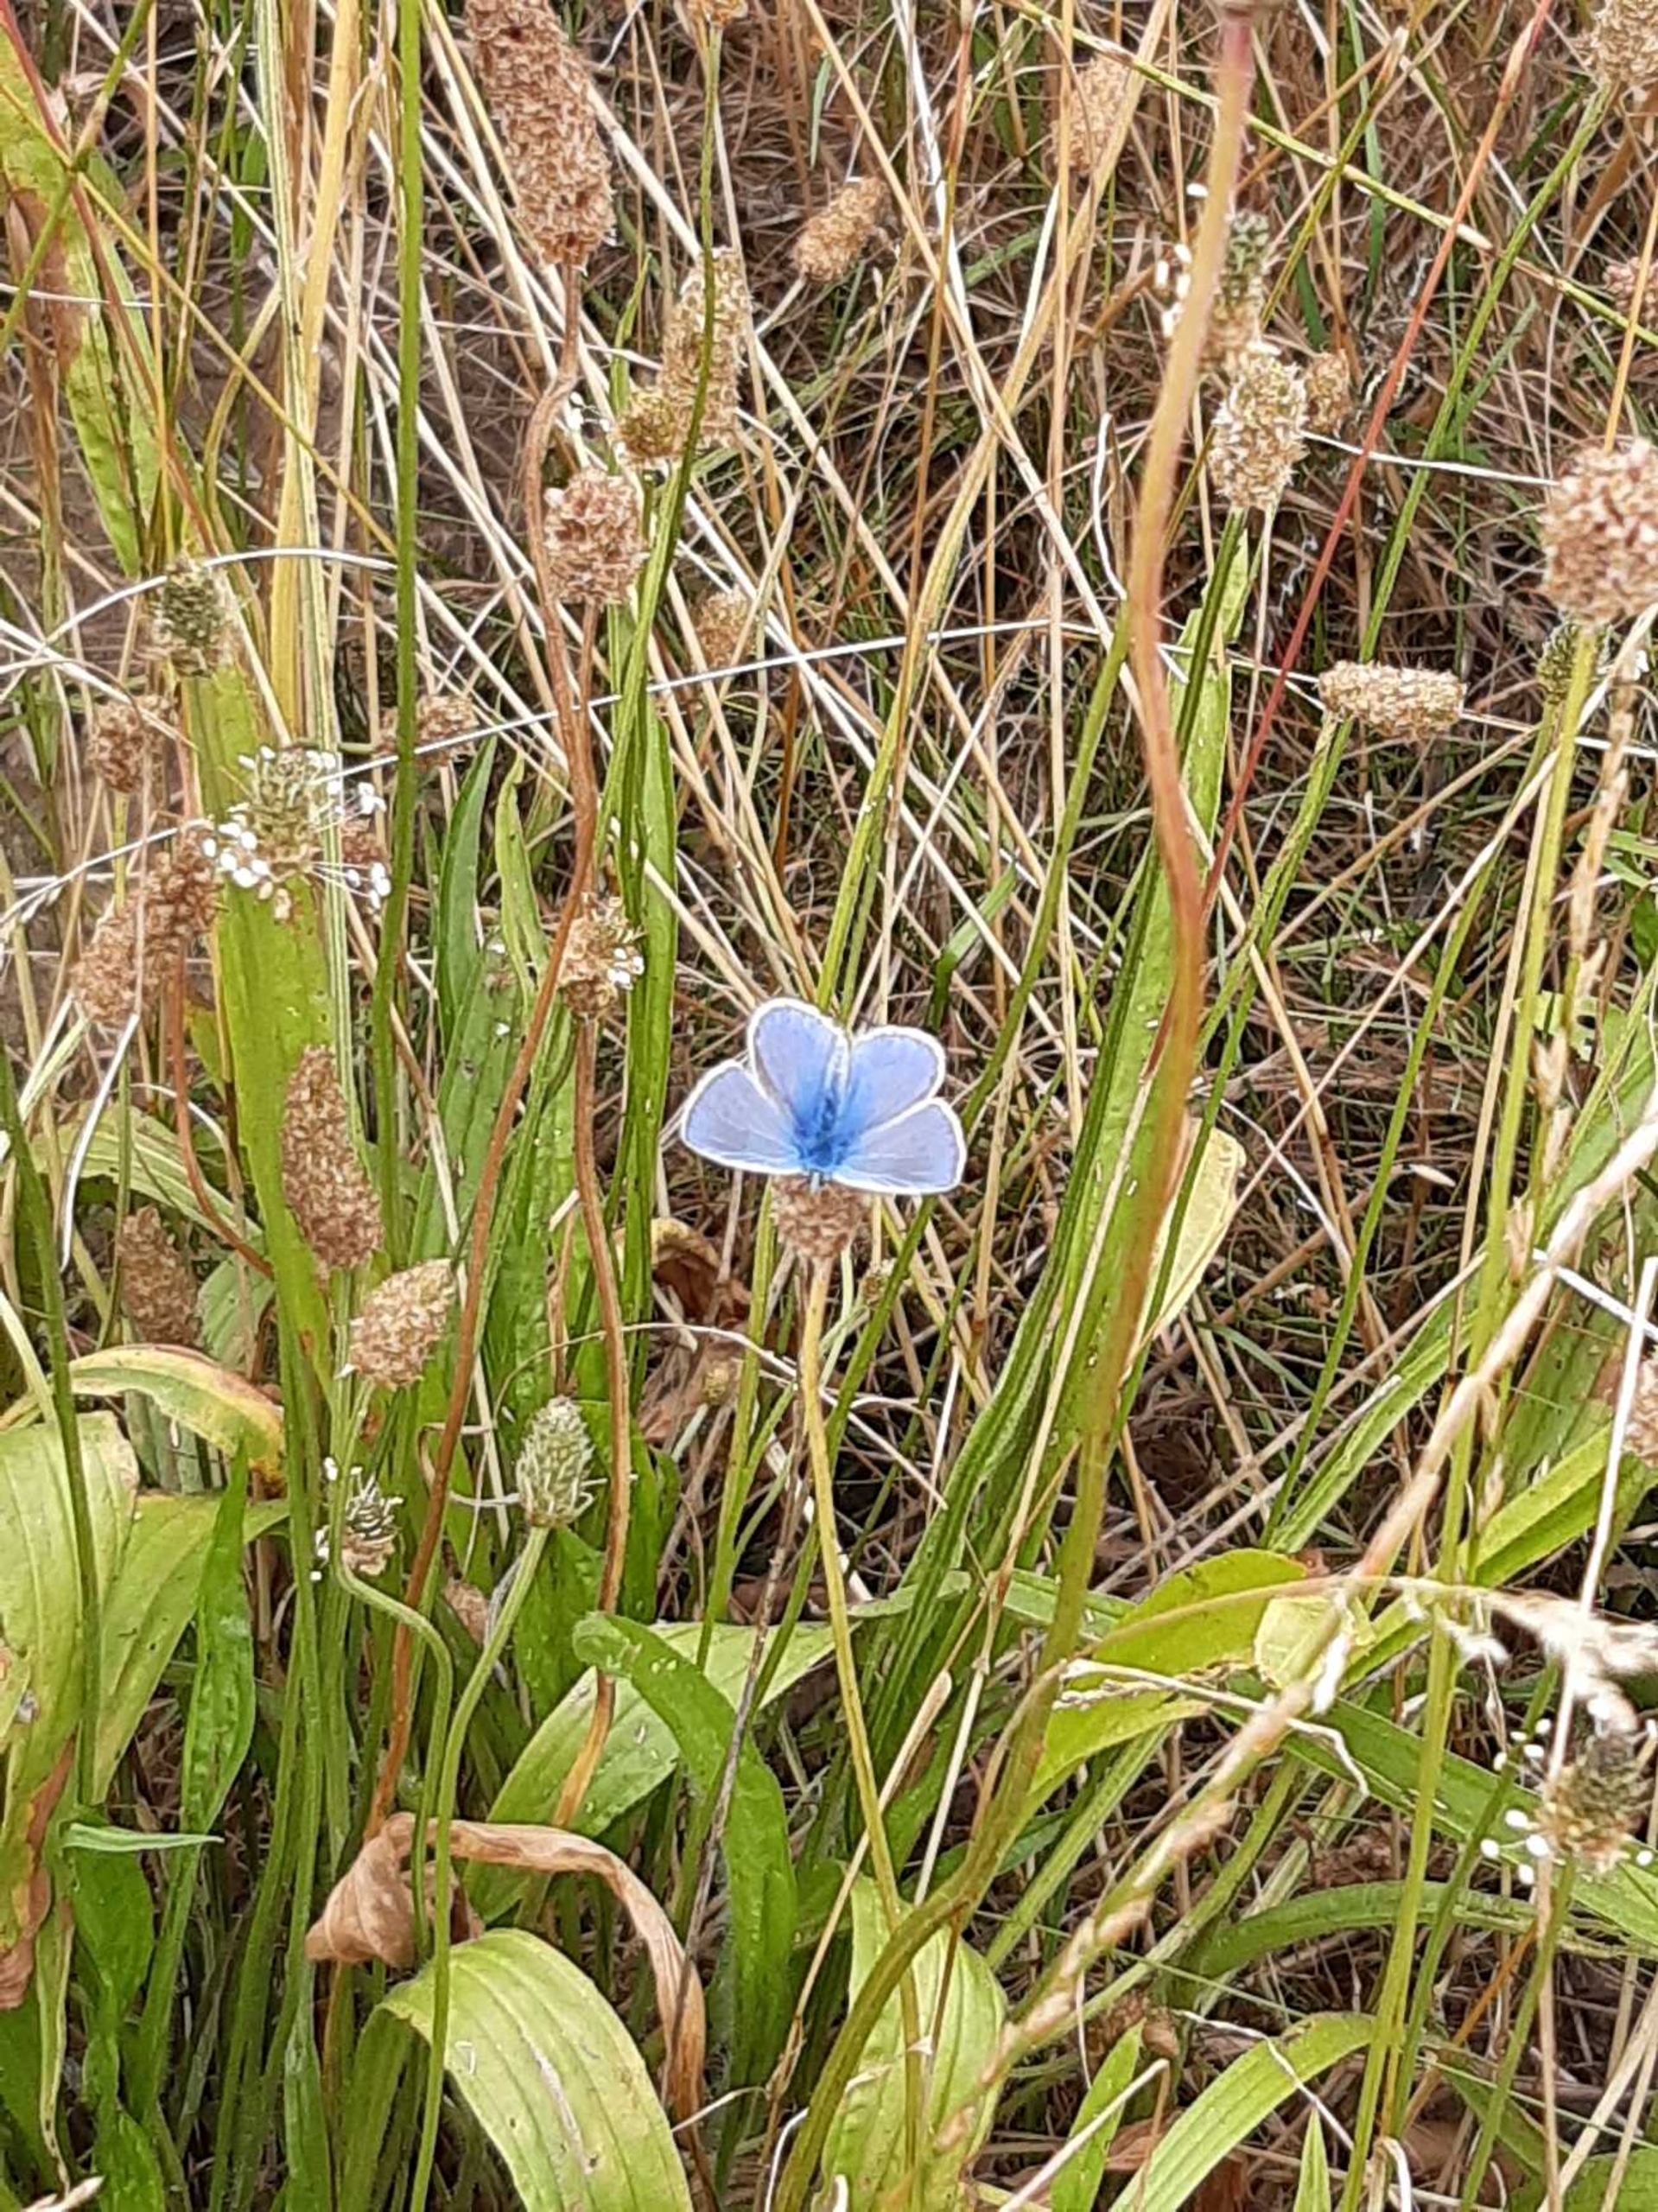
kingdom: Animalia
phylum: Arthropoda
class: Insecta
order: Lepidoptera
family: Lycaenidae
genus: Polyommatus
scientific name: Polyommatus icarus
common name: Almindelig blåfugl
